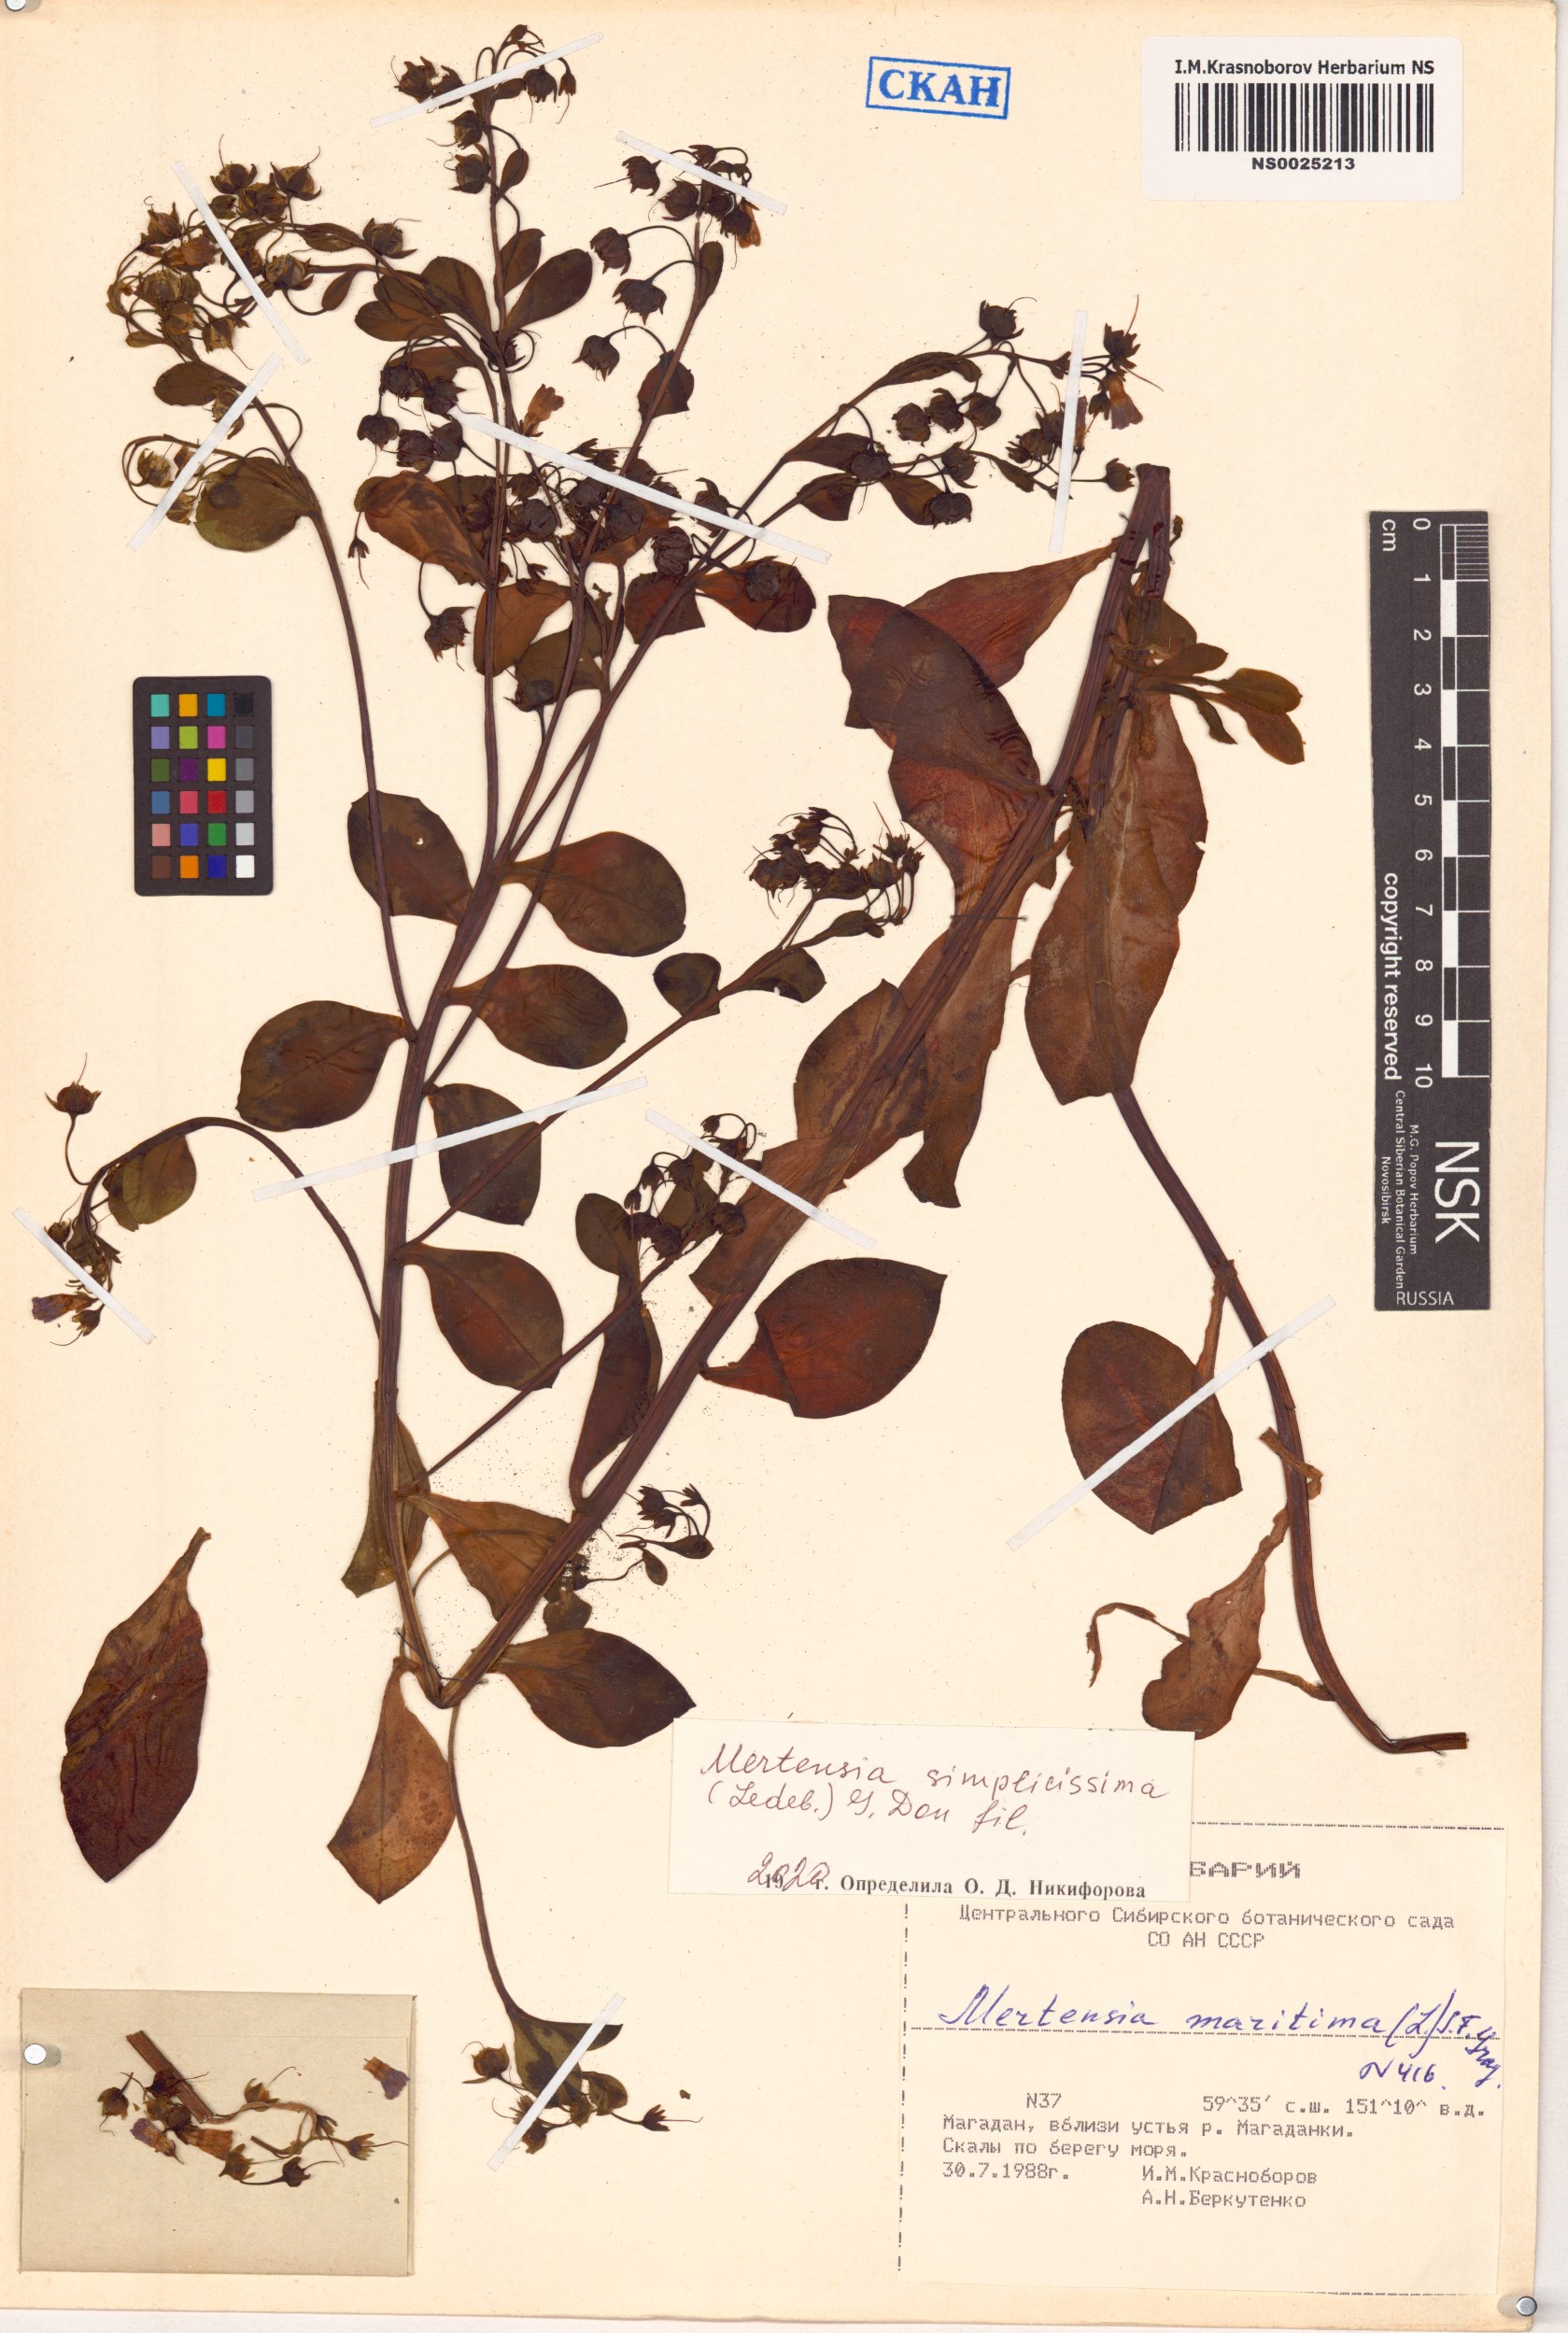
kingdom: Plantae
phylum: Tracheophyta
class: Magnoliopsida
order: Boraginales
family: Boraginaceae
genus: Mertensia
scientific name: Mertensia maritima
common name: Oysterplant
